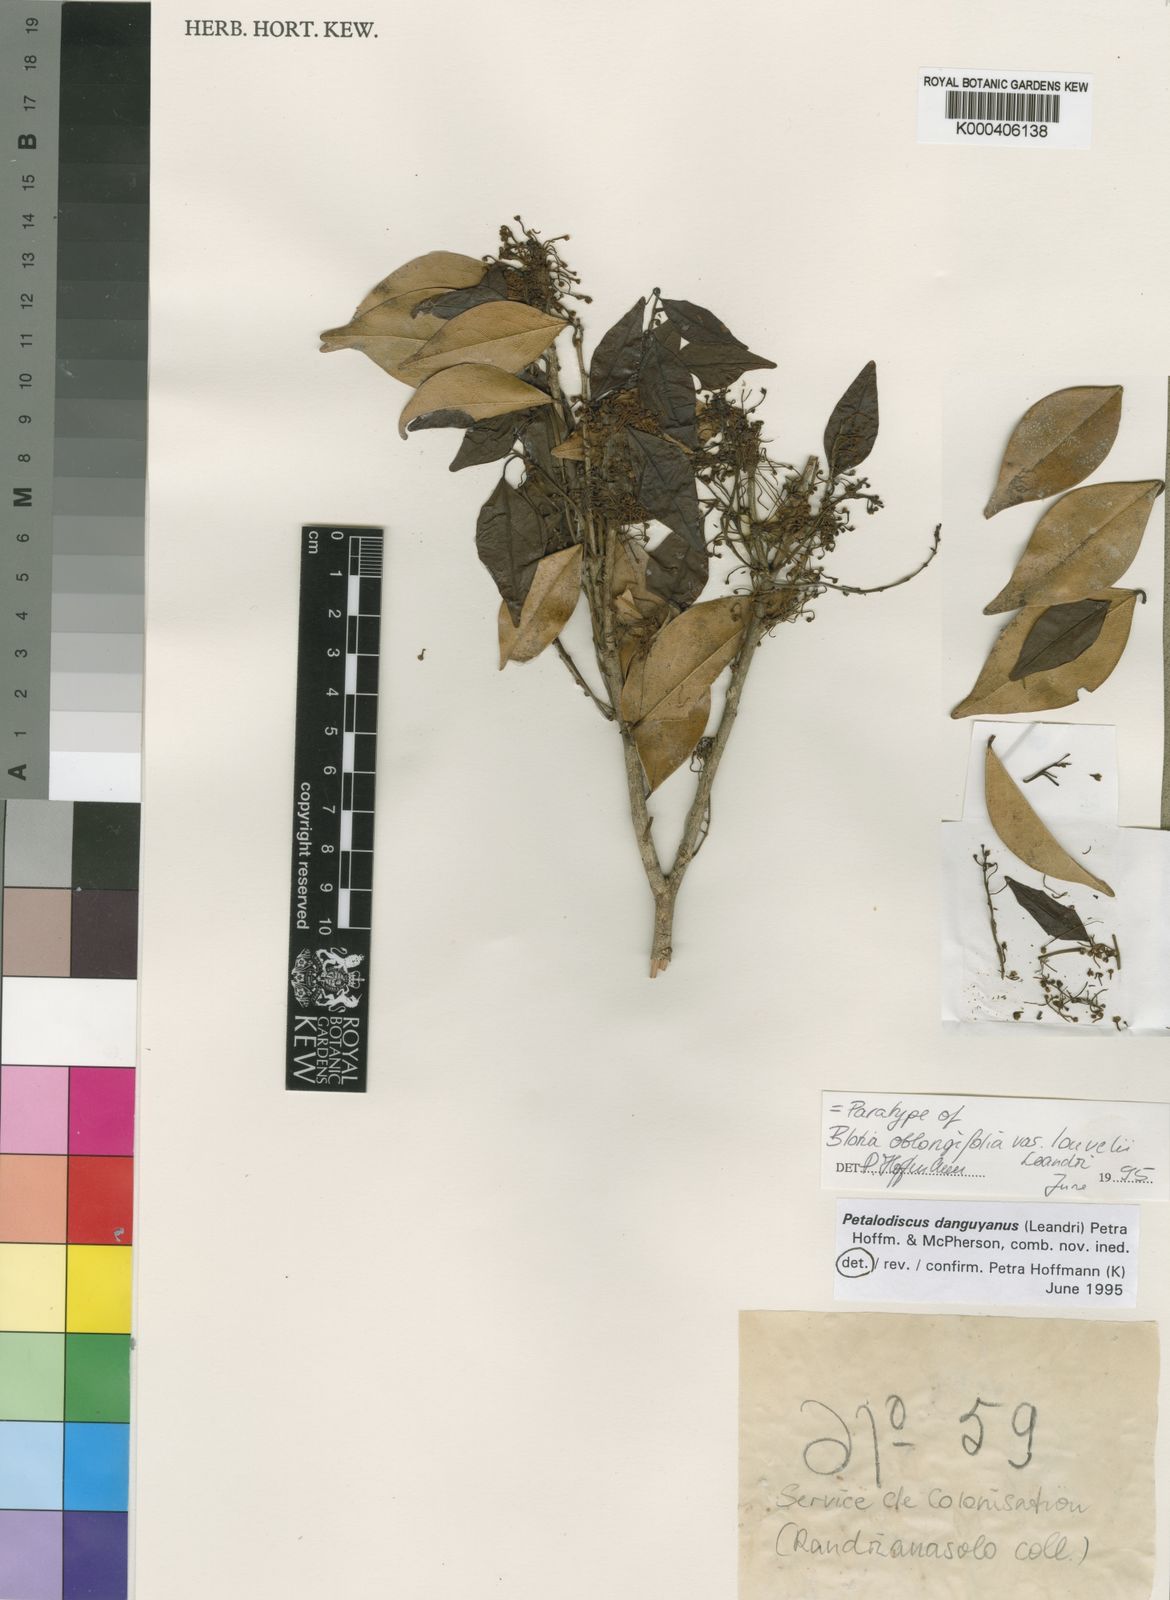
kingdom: Plantae
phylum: Tracheophyta
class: Magnoliopsida
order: Malpighiales
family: Phyllanthaceae
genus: Wielandia
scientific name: Wielandia
